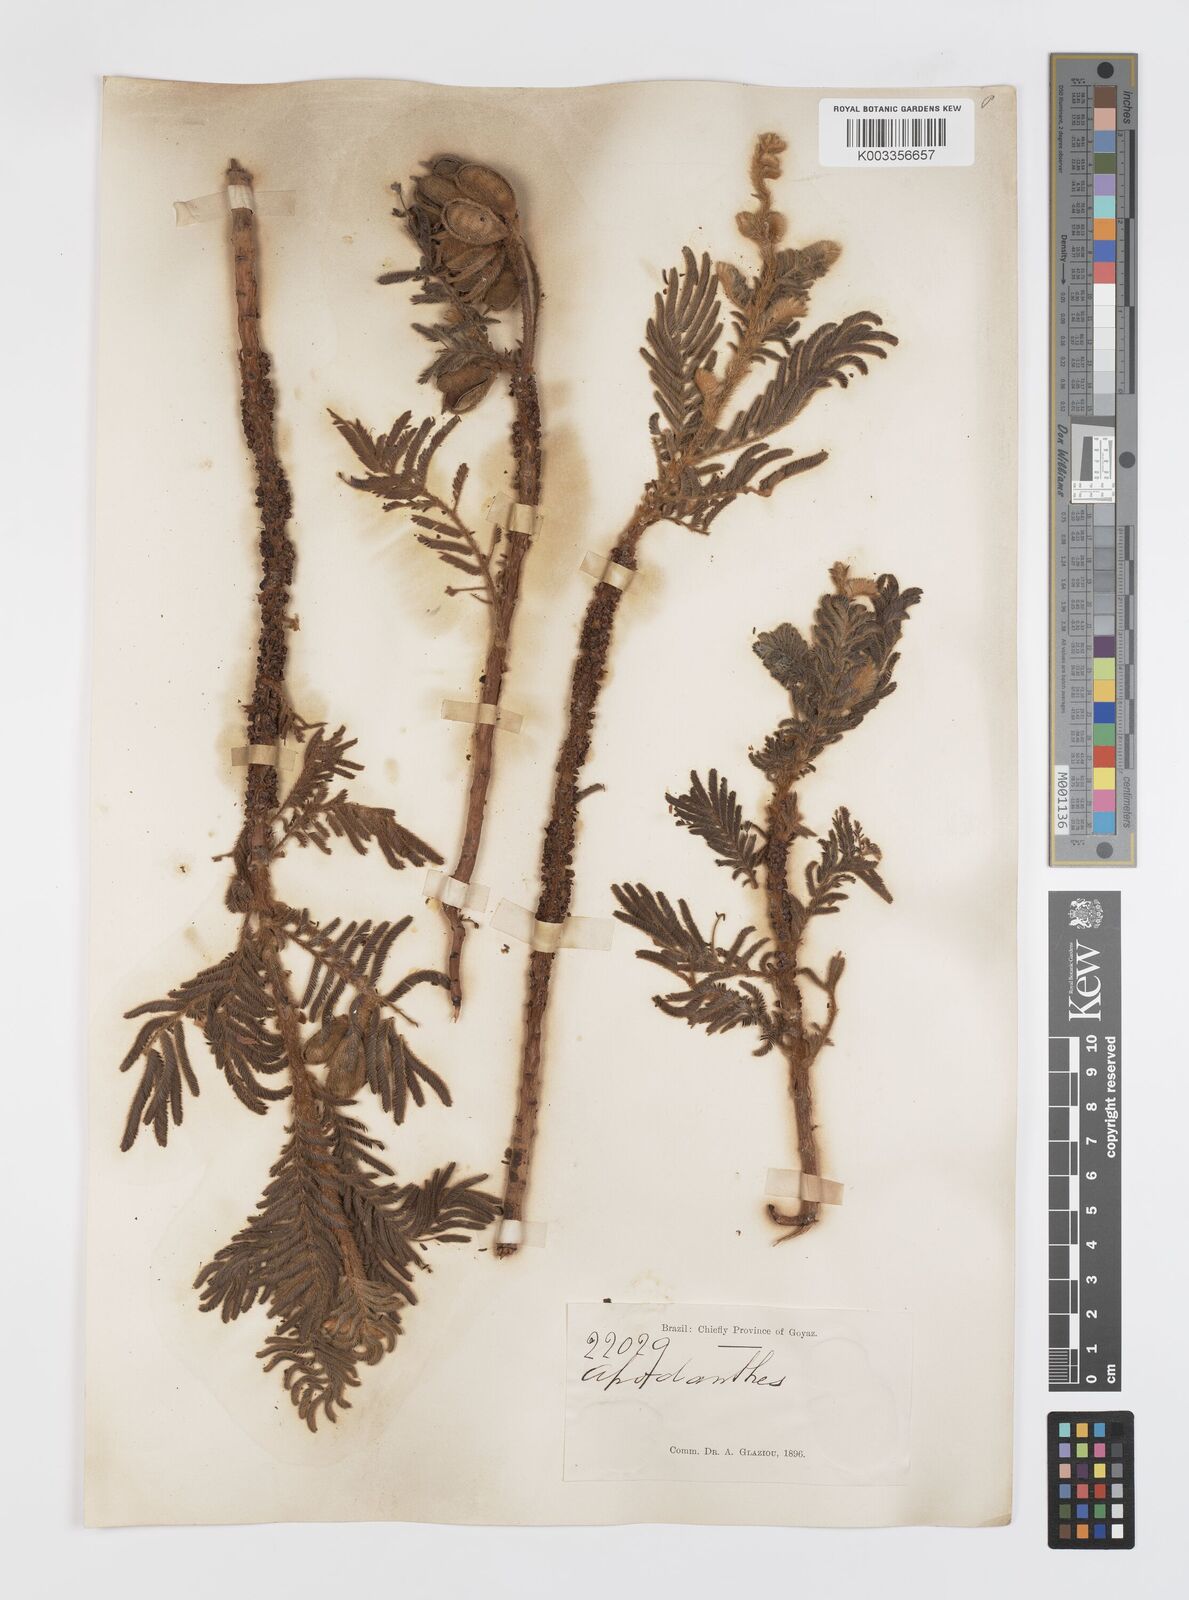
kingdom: Plantae
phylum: Tracheophyta
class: Magnoliopsida
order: Cucurbitales
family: Apodanthaceae
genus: Pilostyles
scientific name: Pilostyles blanchetii
